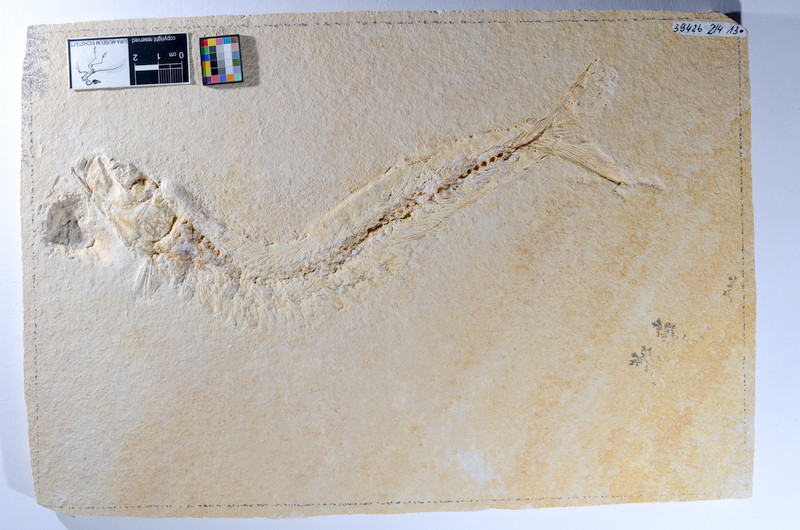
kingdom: Animalia
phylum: Chordata
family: Allothrissopidae
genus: Allothrissops
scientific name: Allothrissops mesogaster
